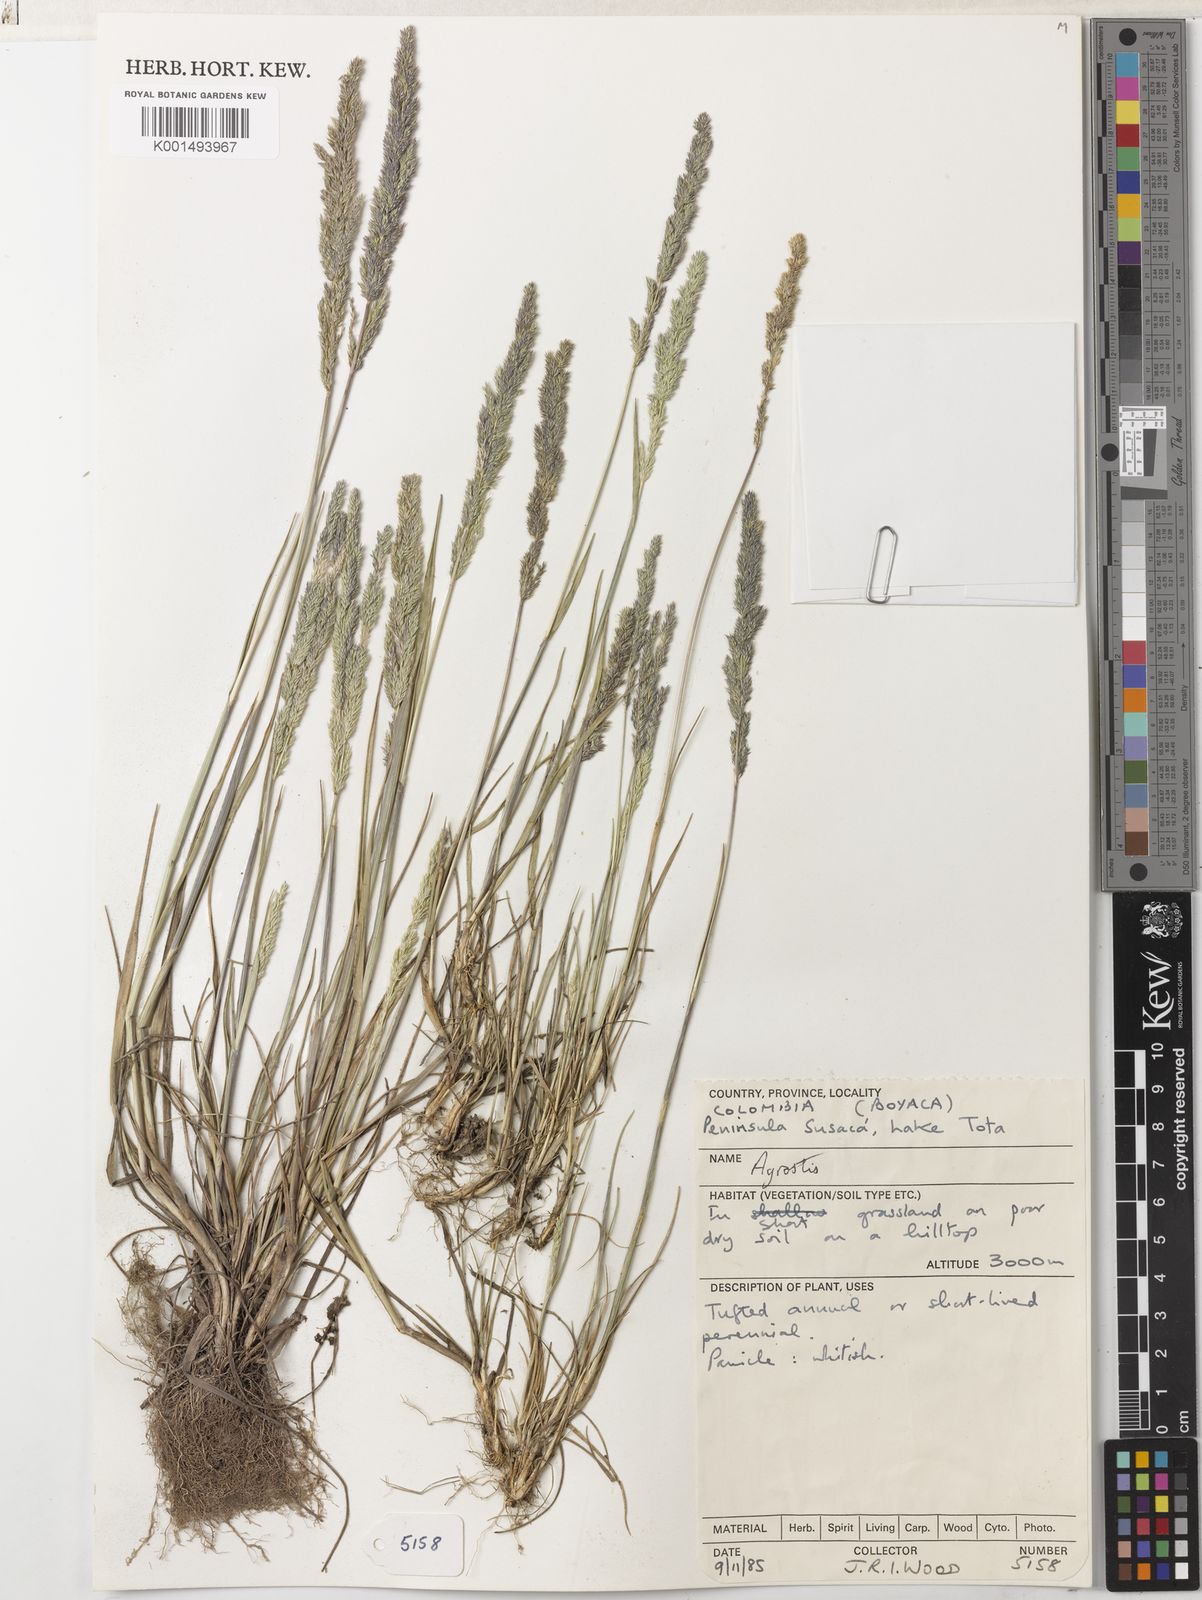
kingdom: Plantae
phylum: Tracheophyta
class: Liliopsida
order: Poales
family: Poaceae
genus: Agrostis
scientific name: Agrostis tolucensis
